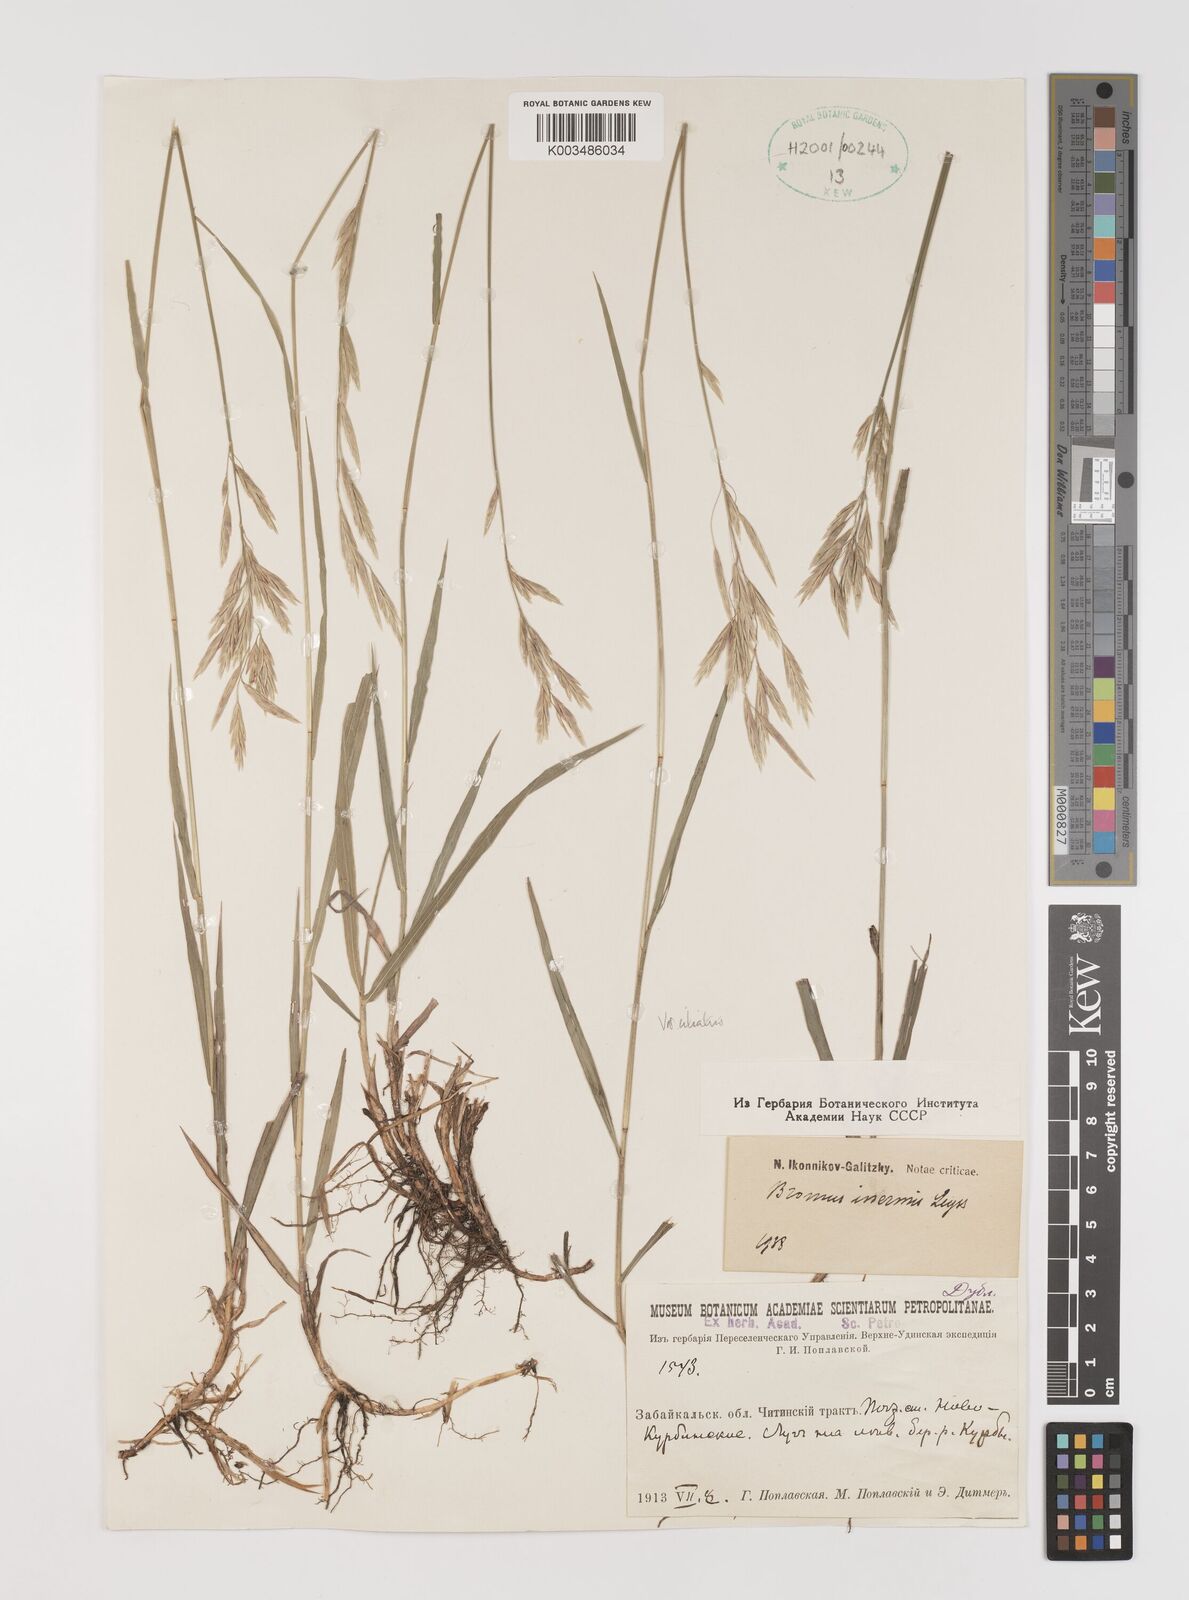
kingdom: Plantae
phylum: Tracheophyta
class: Liliopsida
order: Poales
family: Poaceae
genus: Bromus
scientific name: Bromus inermis
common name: Smooth brome
